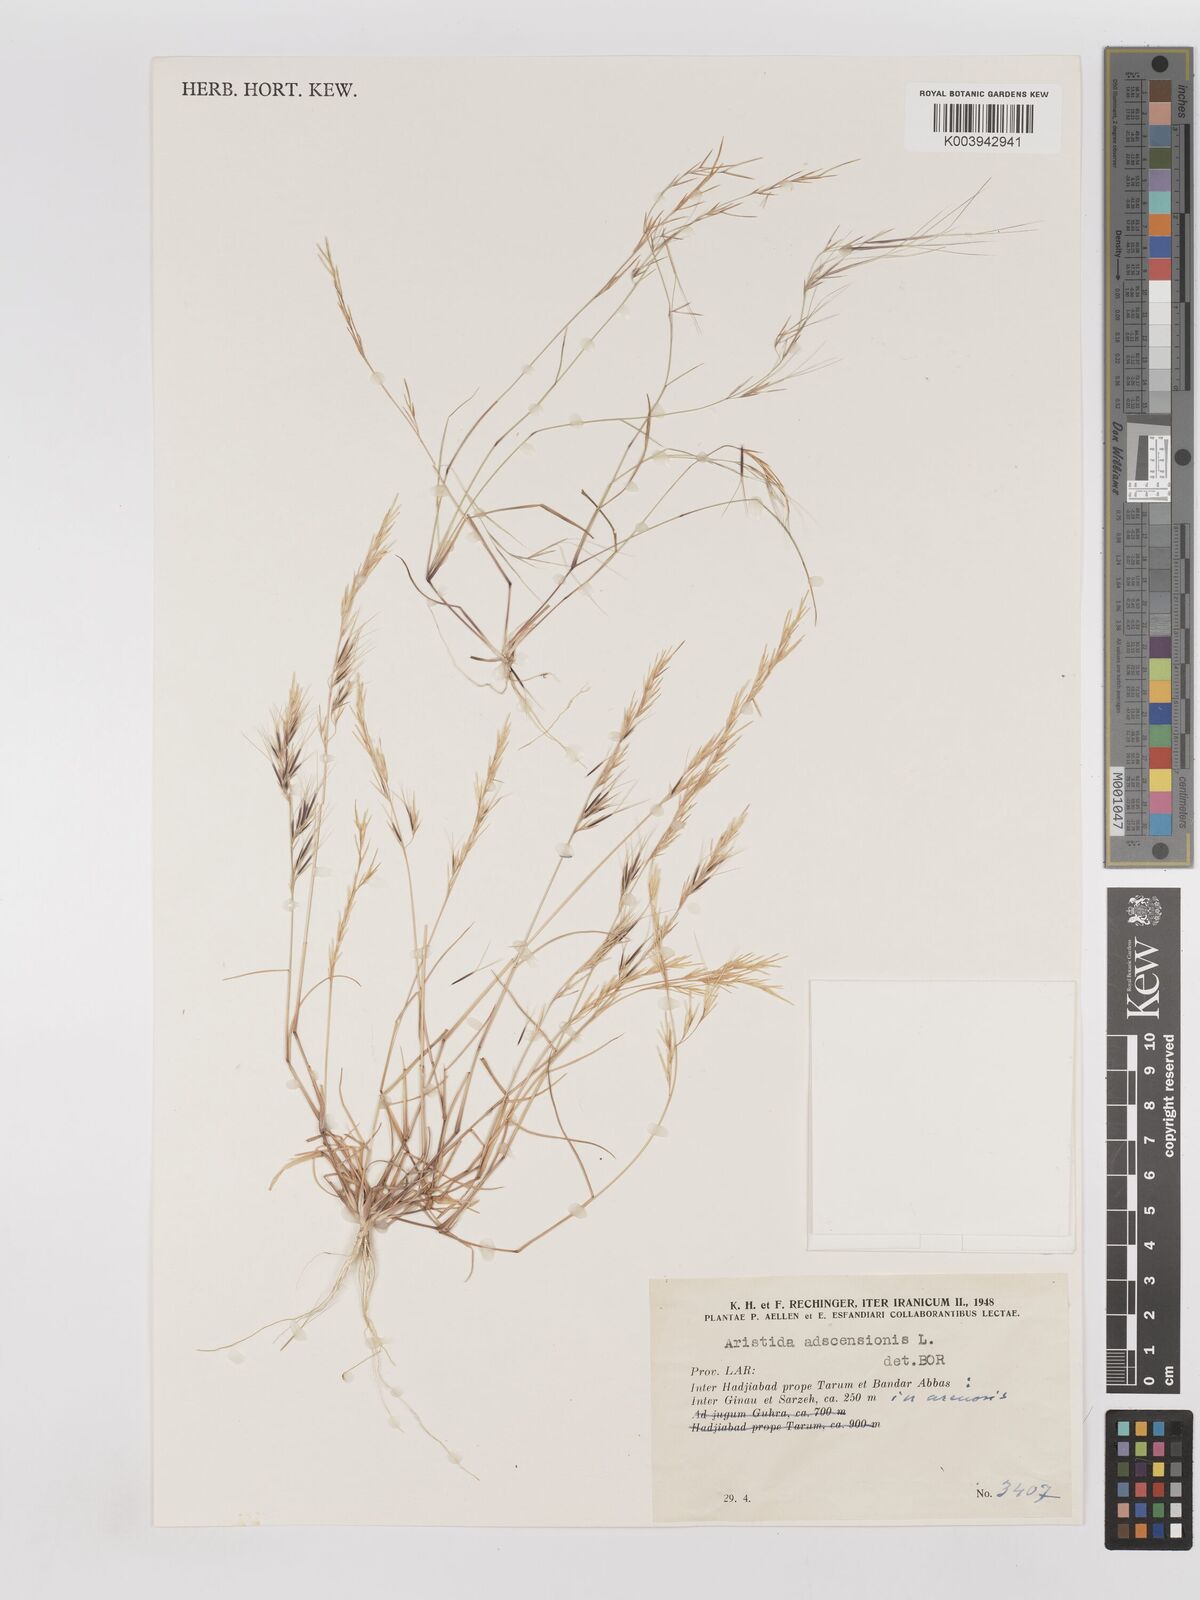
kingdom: Plantae
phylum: Tracheophyta
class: Liliopsida
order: Poales
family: Poaceae
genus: Aristida
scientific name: Aristida adscensionis
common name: Sixweeks threeawn
